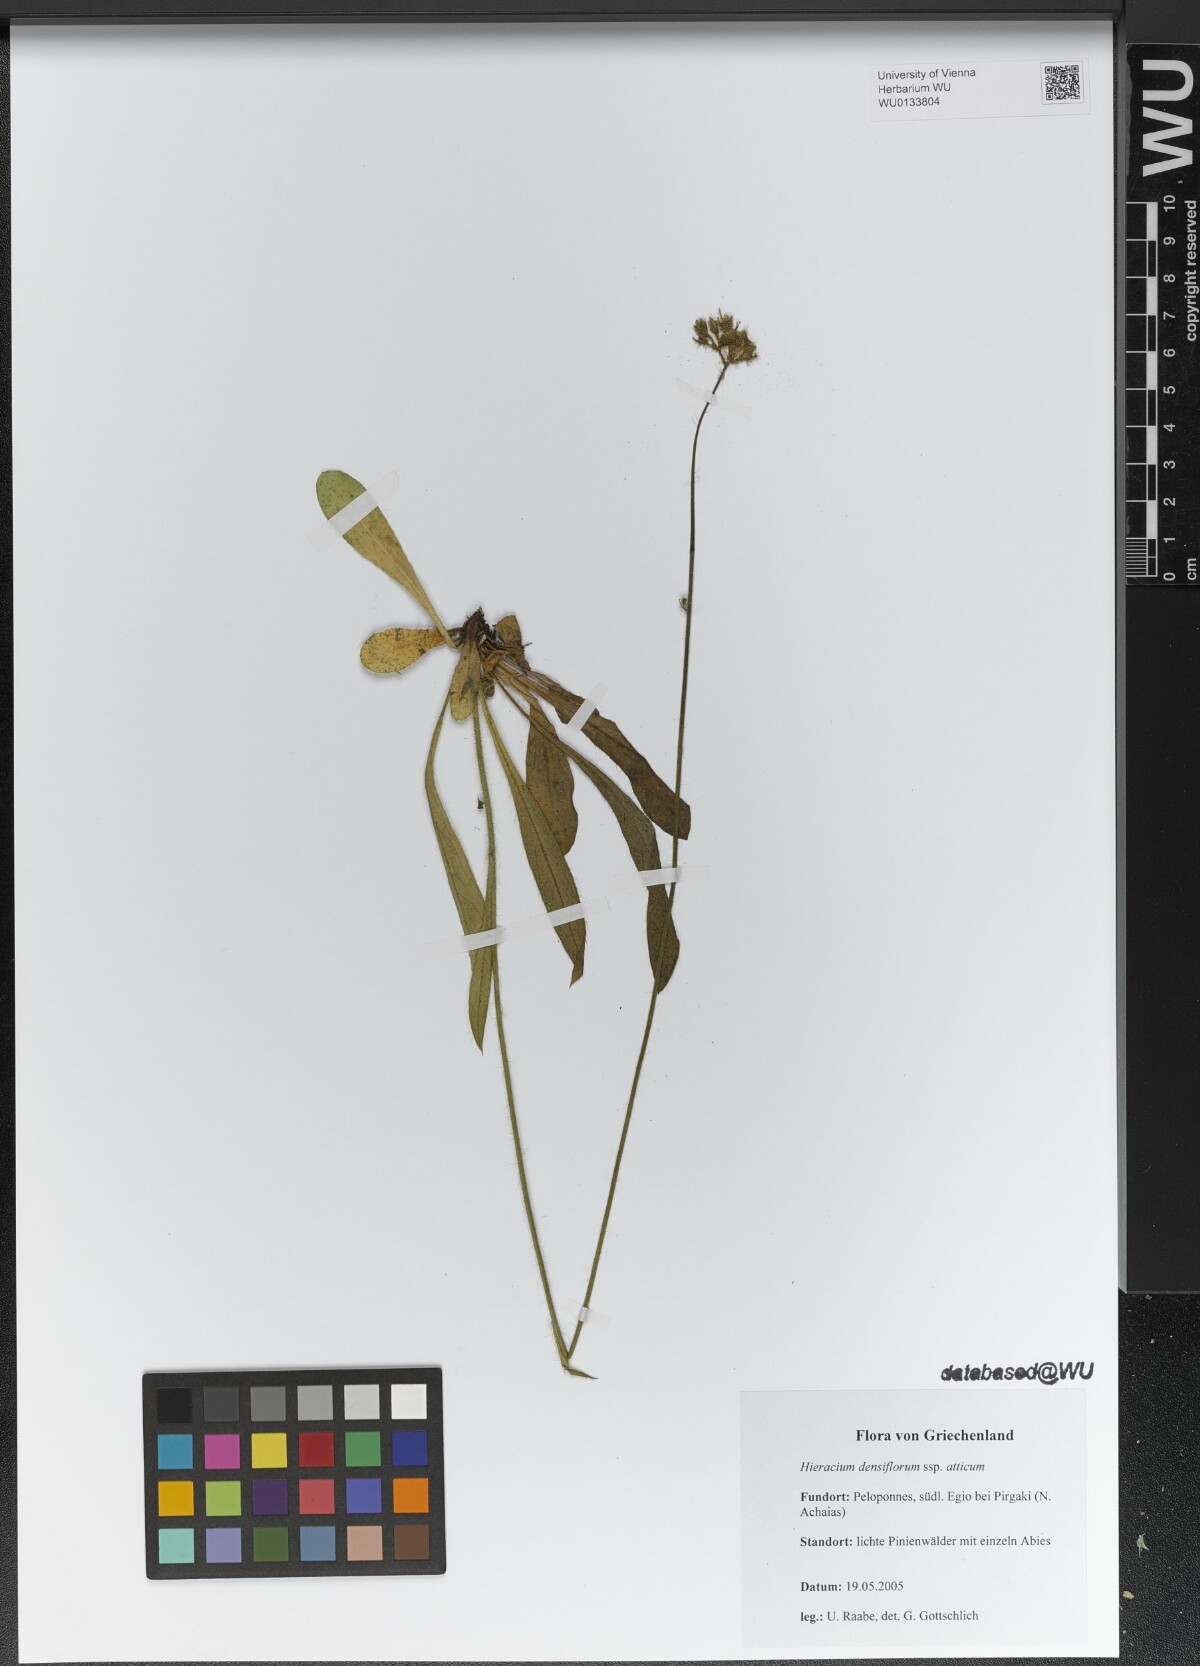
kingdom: Plantae
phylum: Tracheophyta
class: Magnoliopsida
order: Asterales
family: Asteraceae
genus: Pilosella
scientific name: Pilosella densiflora
